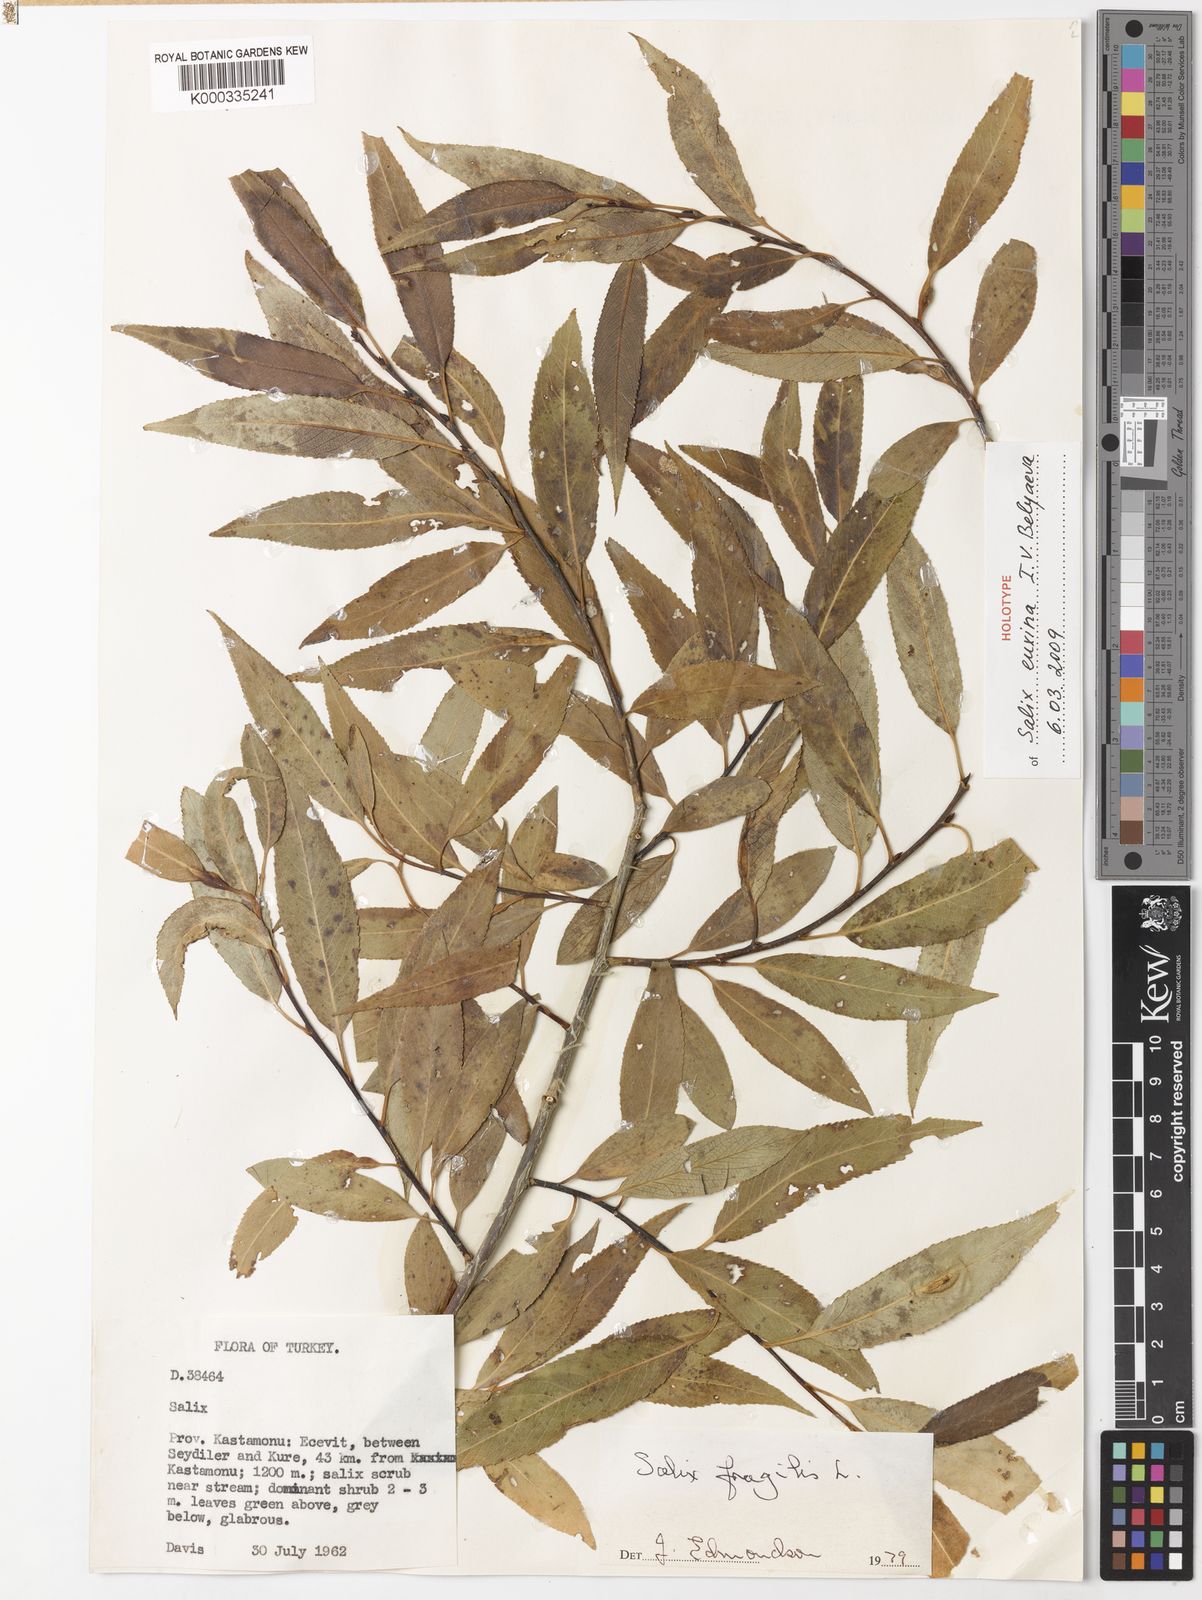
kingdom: Plantae
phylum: Tracheophyta
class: Magnoliopsida
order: Malpighiales
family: Salicaceae
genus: Salix
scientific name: Salix alba
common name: White willow
